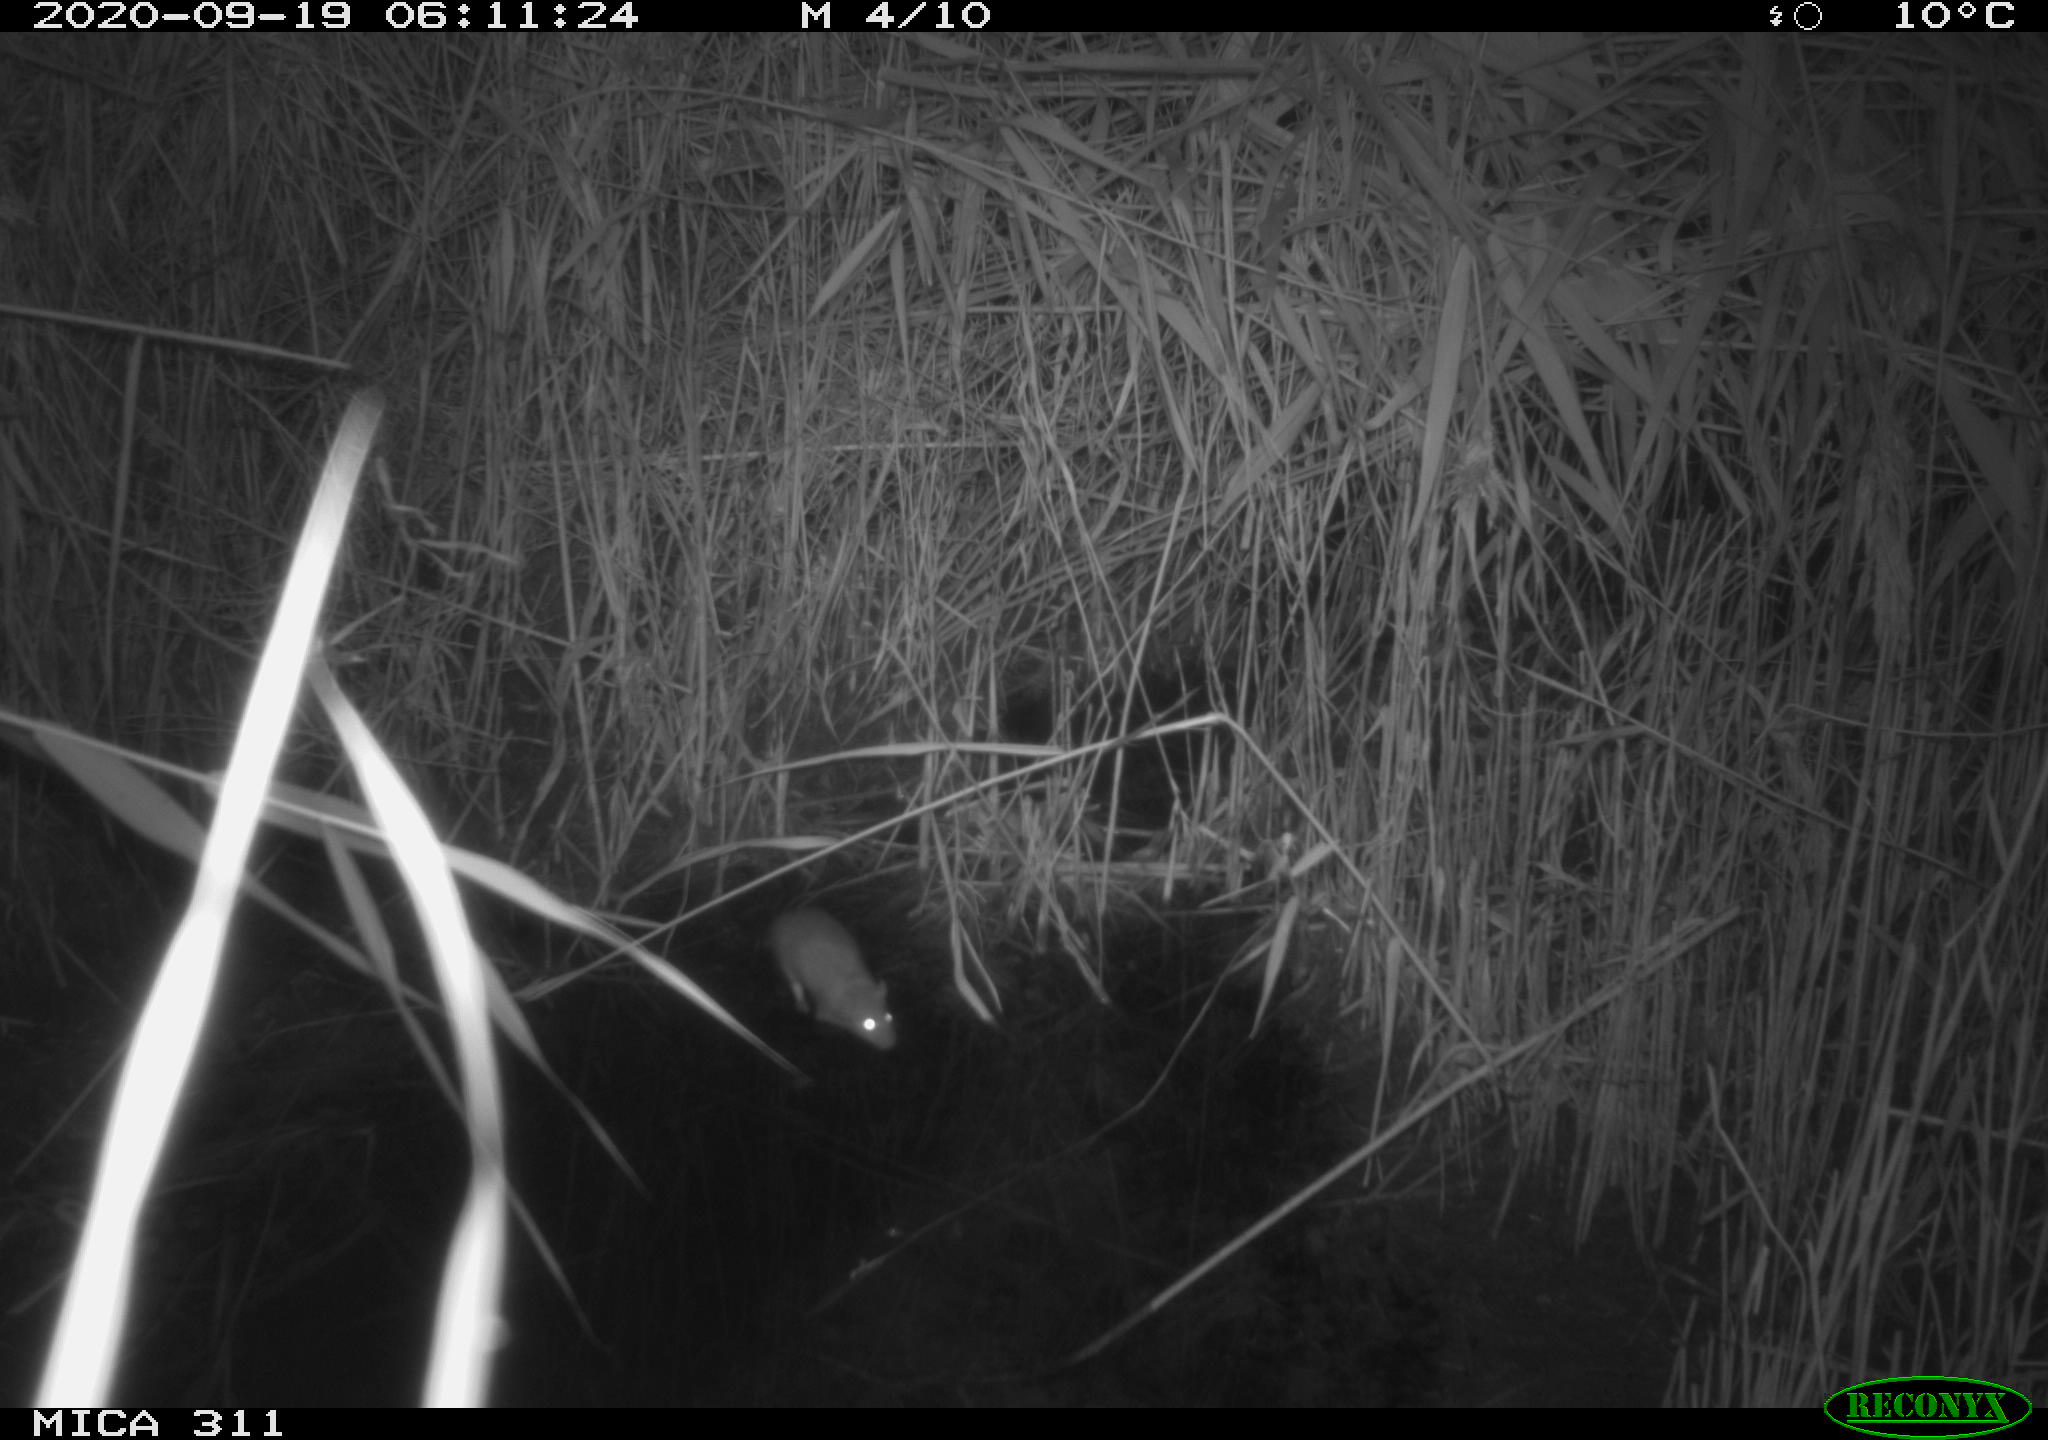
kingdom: Animalia
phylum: Chordata
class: Mammalia
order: Rodentia
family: Muridae
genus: Rattus
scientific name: Rattus norvegicus
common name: Brown rat
